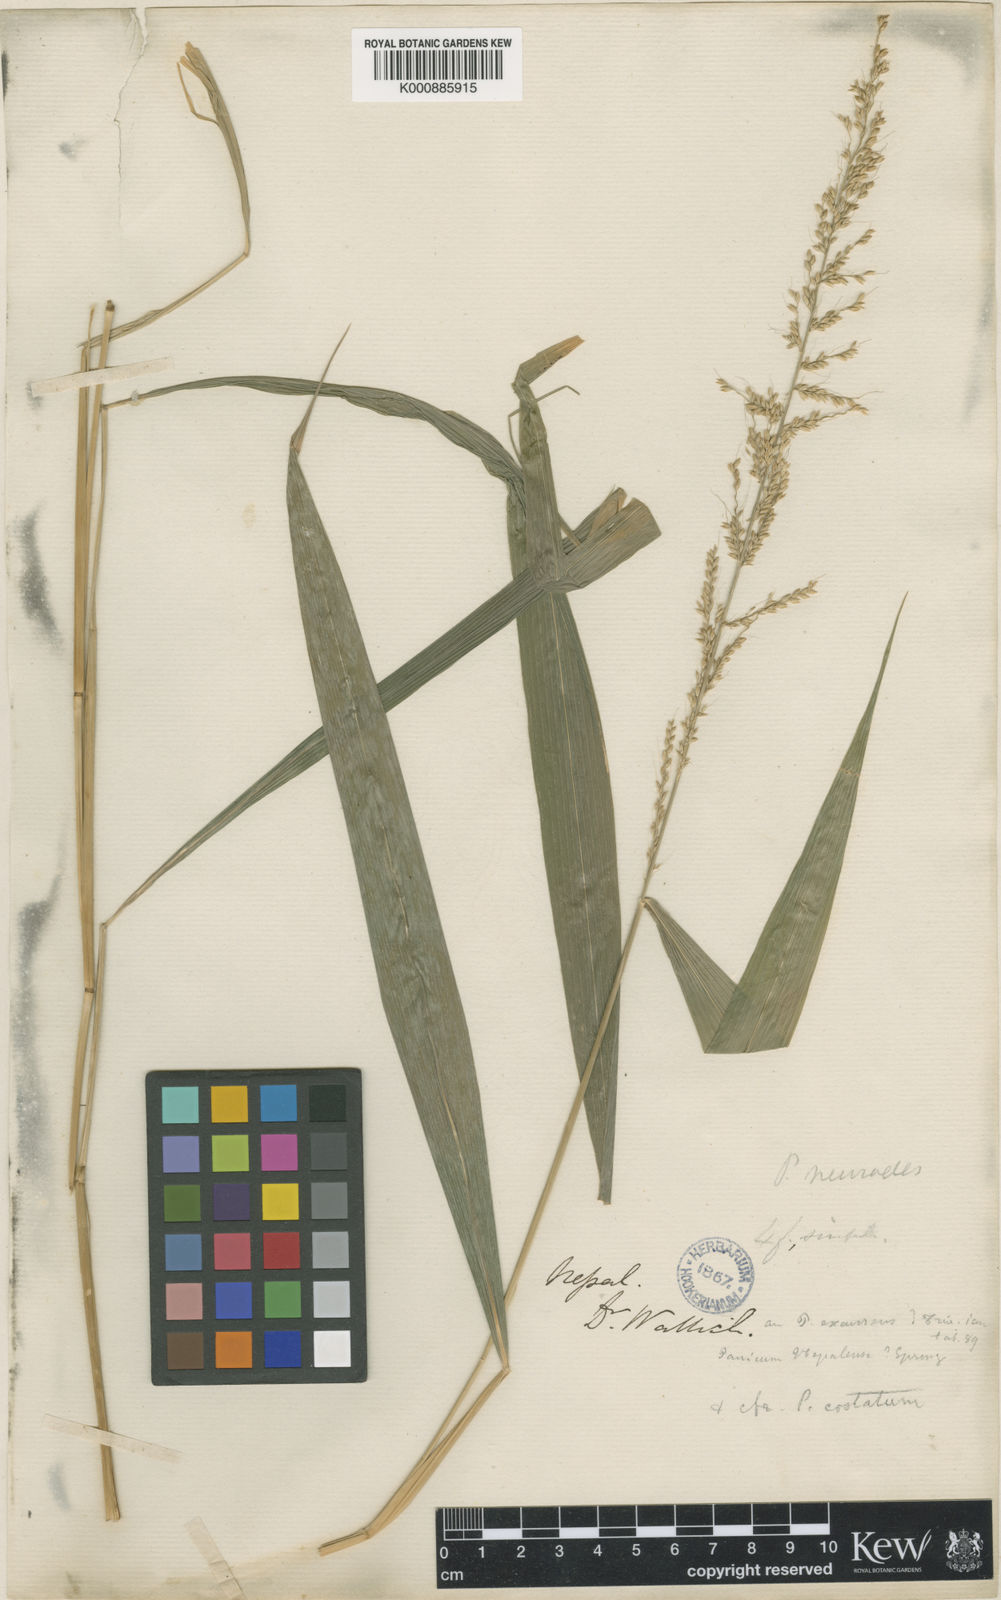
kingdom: Plantae
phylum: Tracheophyta
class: Liliopsida
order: Poales
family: Poaceae
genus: Setaria
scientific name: Setaria plicata
